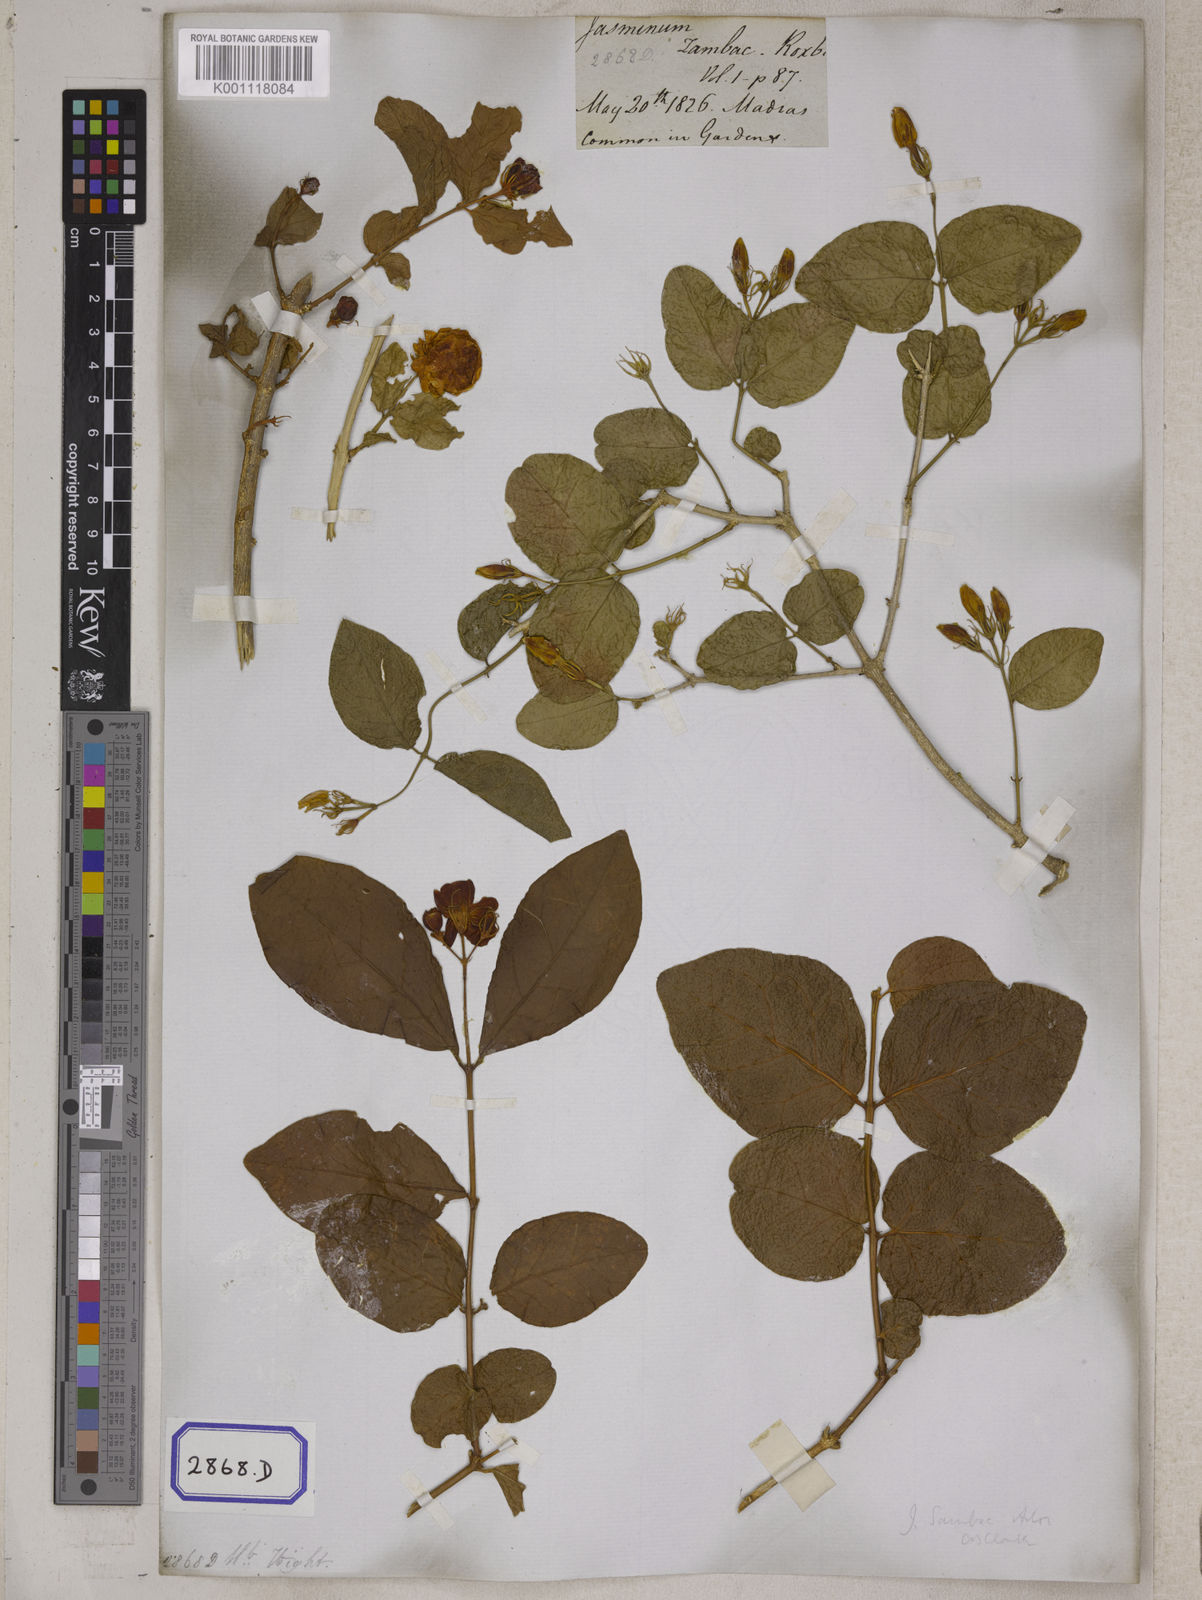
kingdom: Plantae
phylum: Tracheophyta
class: Magnoliopsida
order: Lamiales
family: Oleaceae
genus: Jasminum
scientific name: Jasminum sambac
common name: Arabian jasmine
